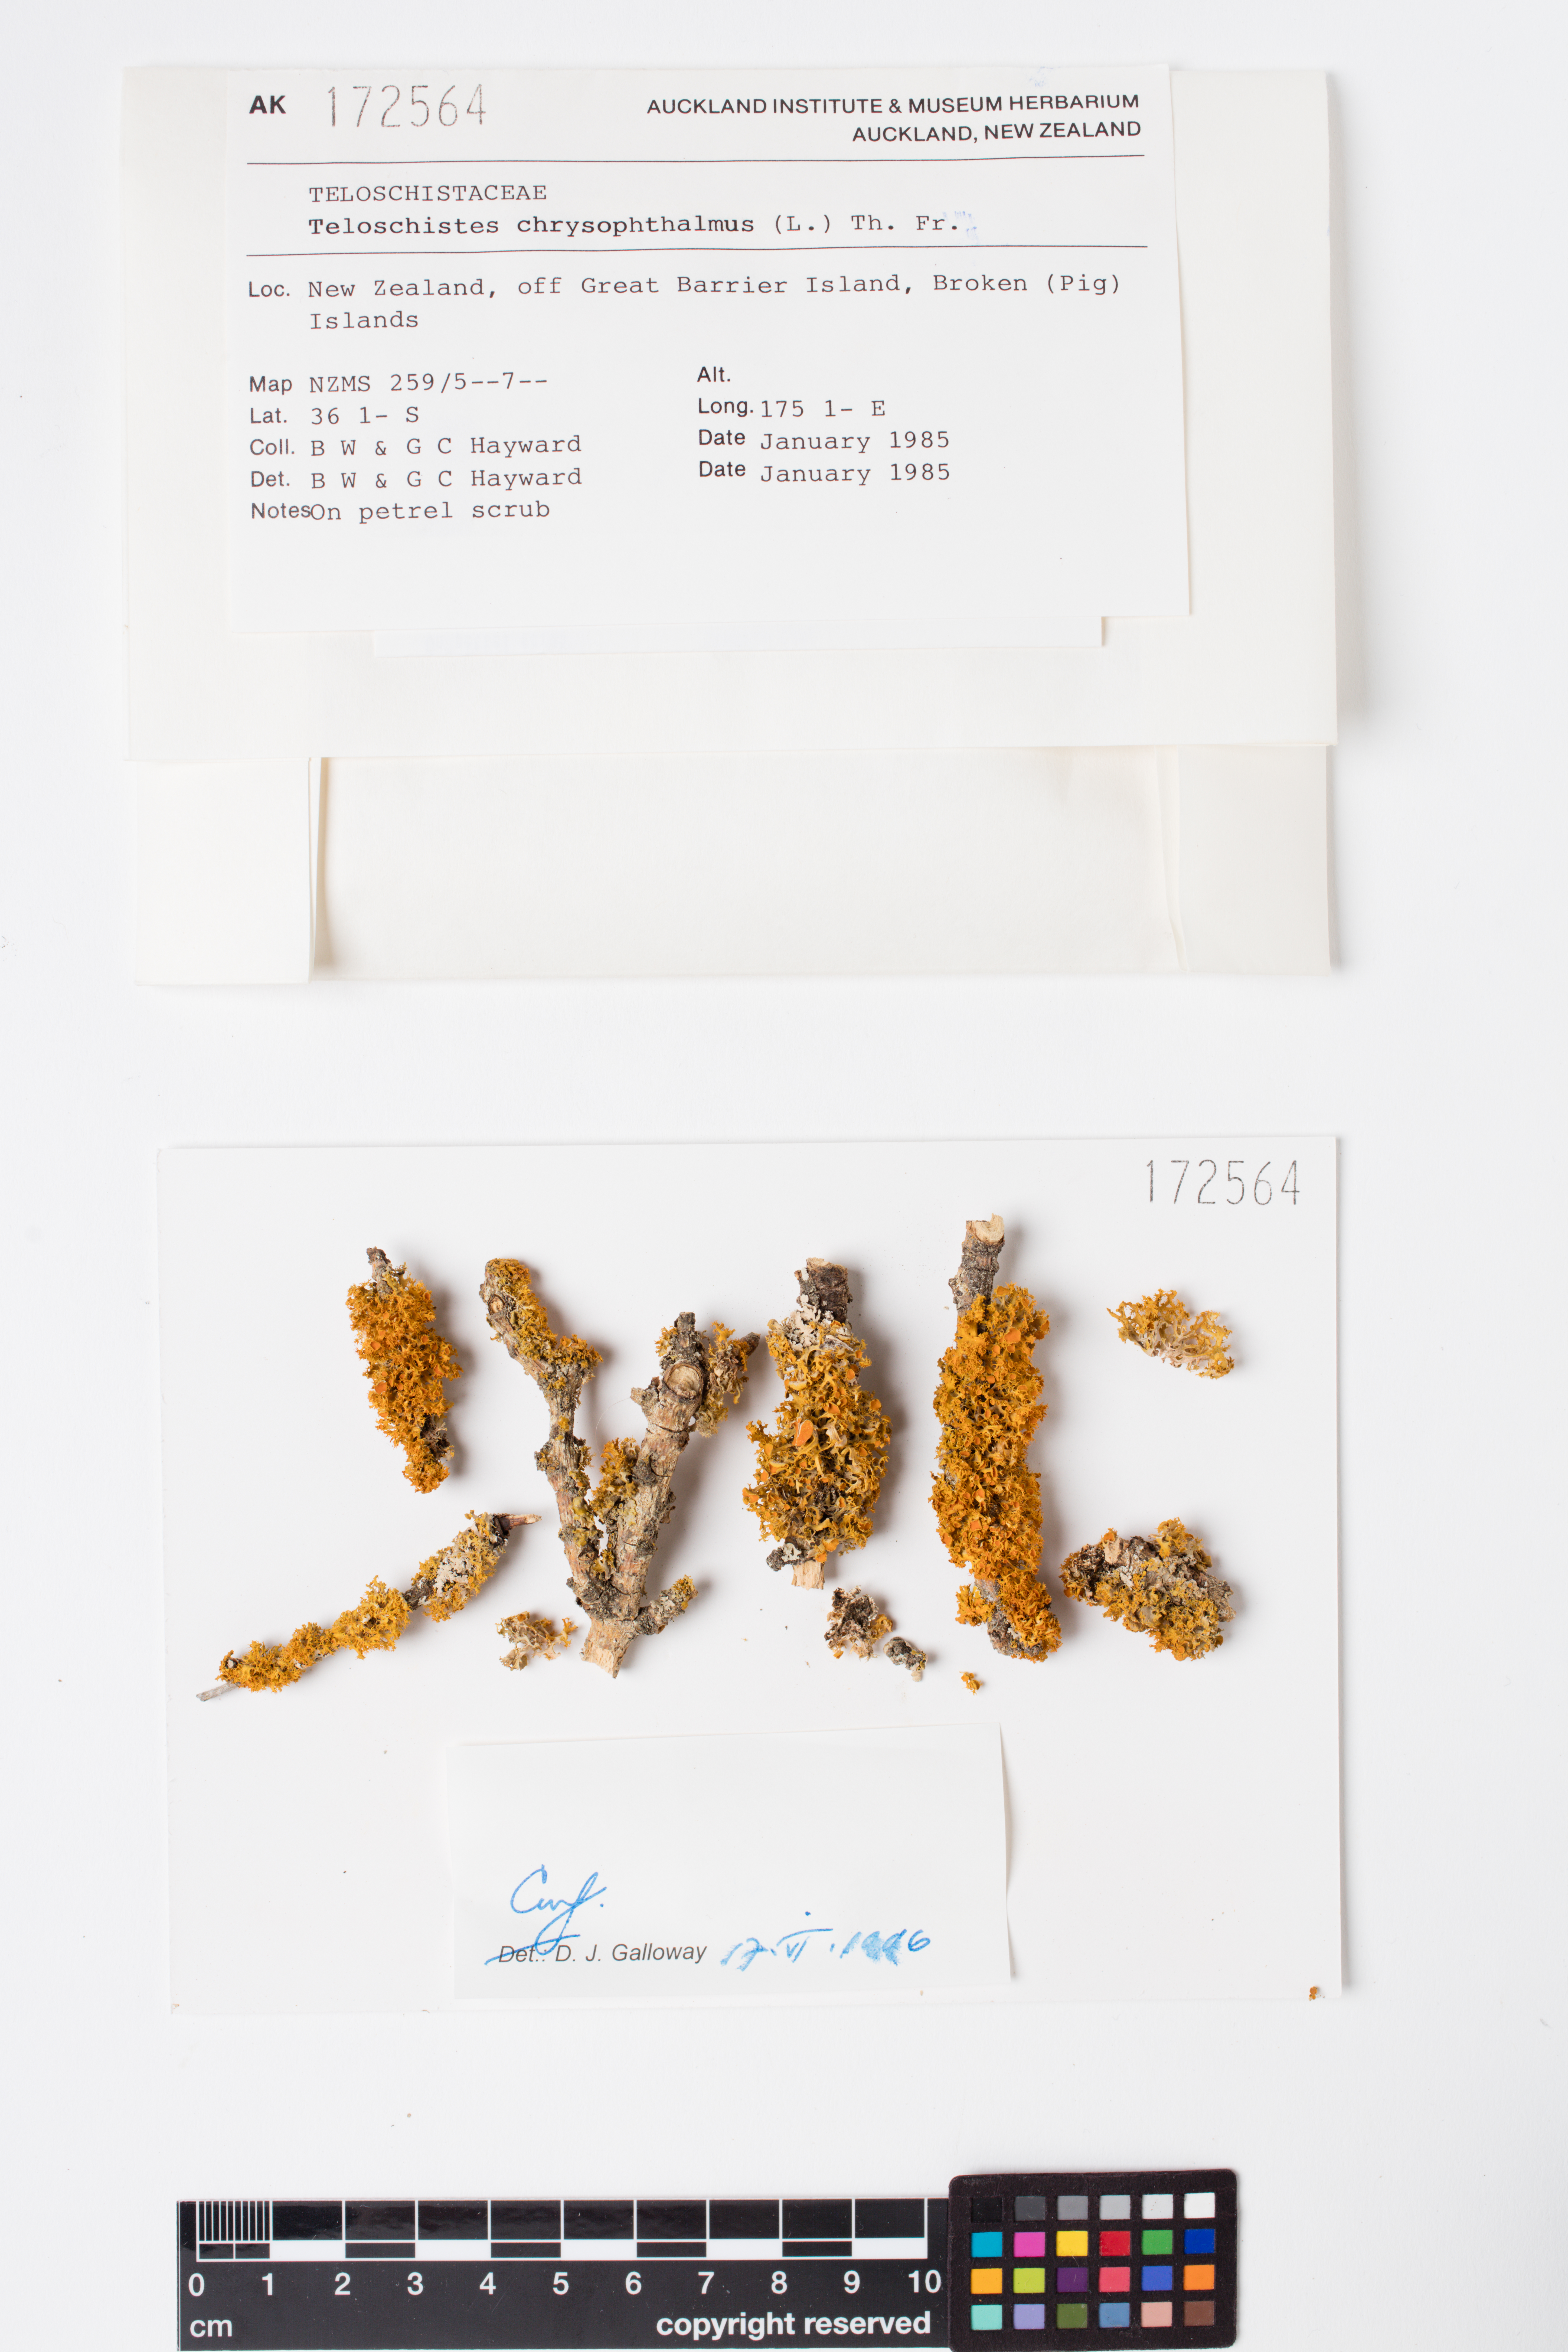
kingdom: Fungi
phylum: Ascomycota
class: Lecanoromycetes
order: Teloschistales
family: Teloschistaceae
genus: Niorma
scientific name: Niorma chrysophthalma
